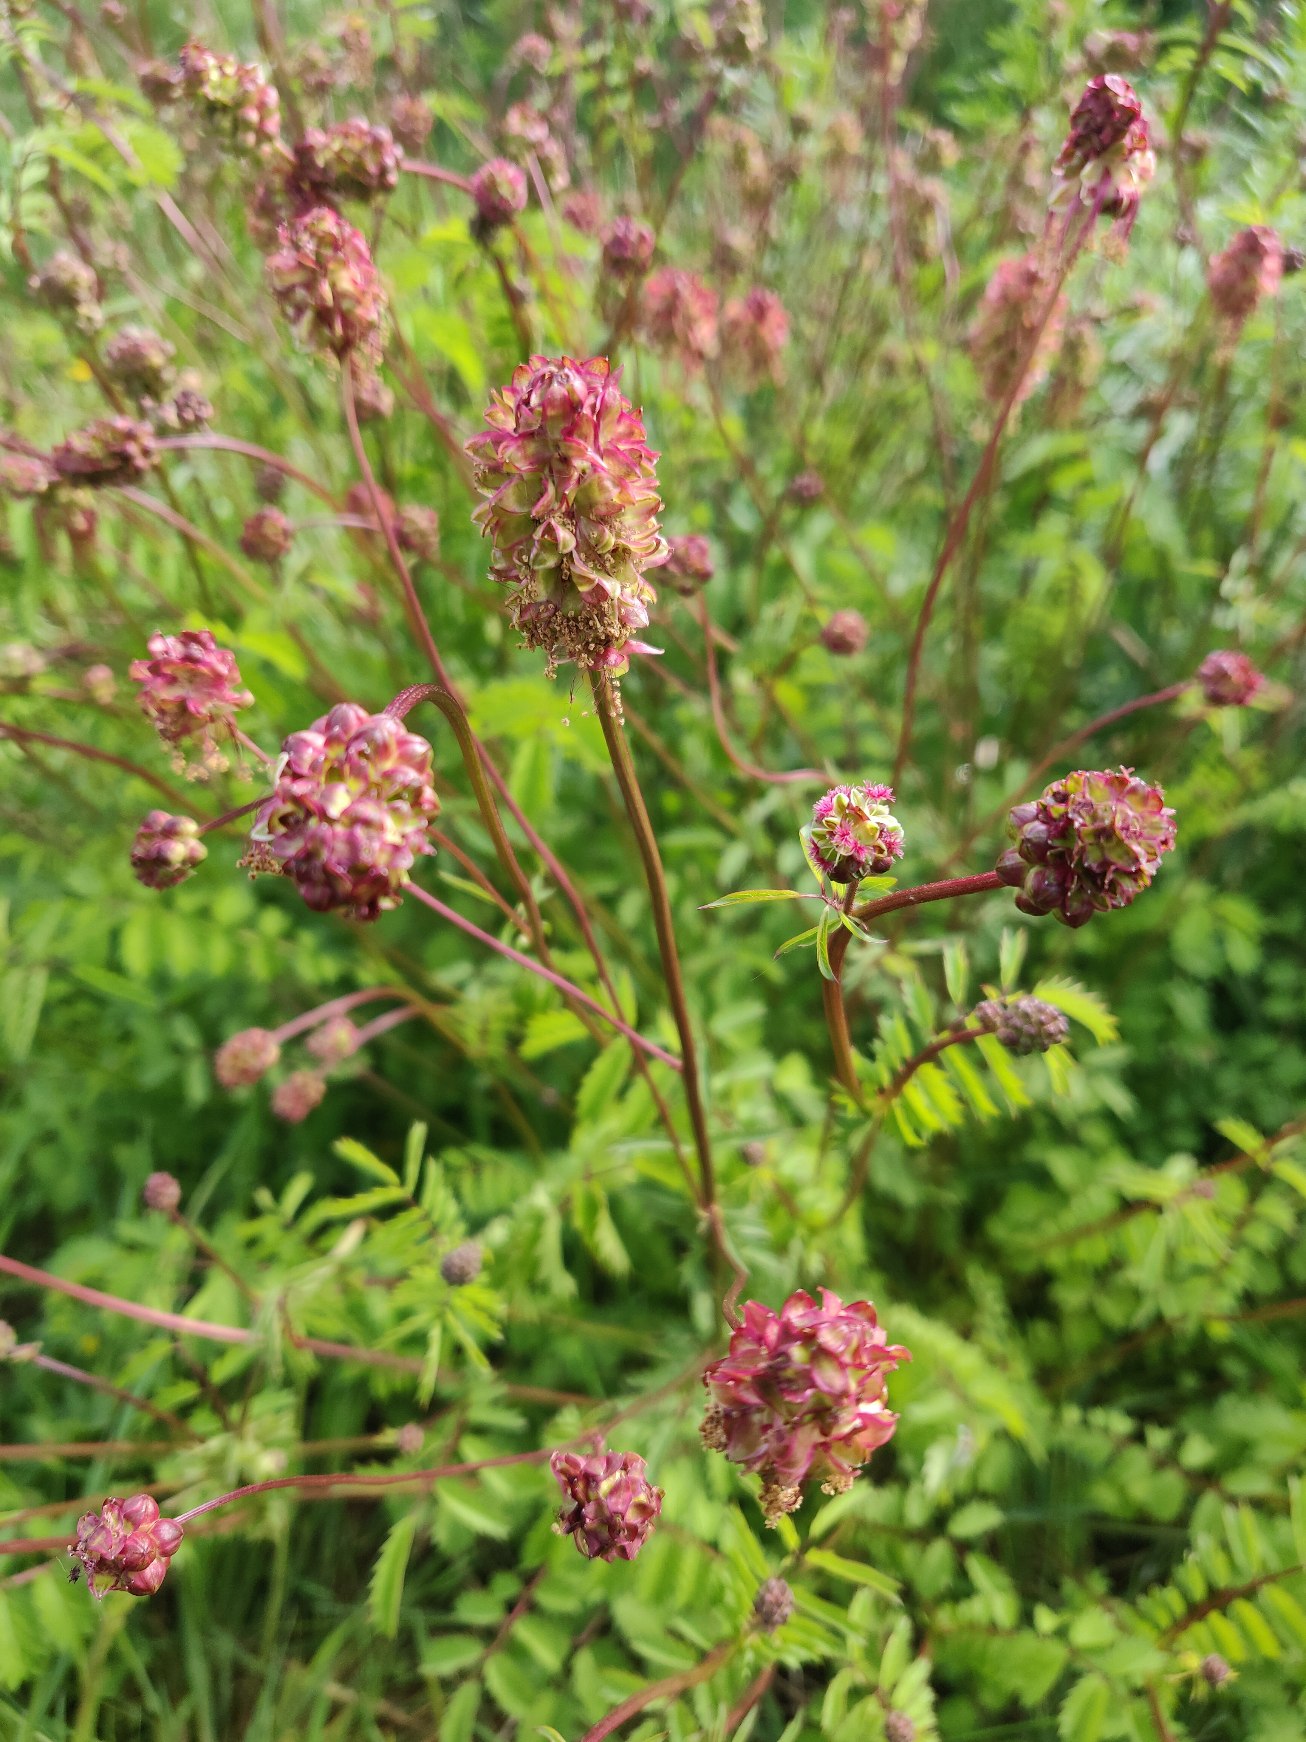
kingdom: Plantae
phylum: Tracheophyta
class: Magnoliopsida
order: Rosales
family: Rosaceae
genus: Poterium
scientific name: Poterium sanguisorba
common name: Bibernelle
